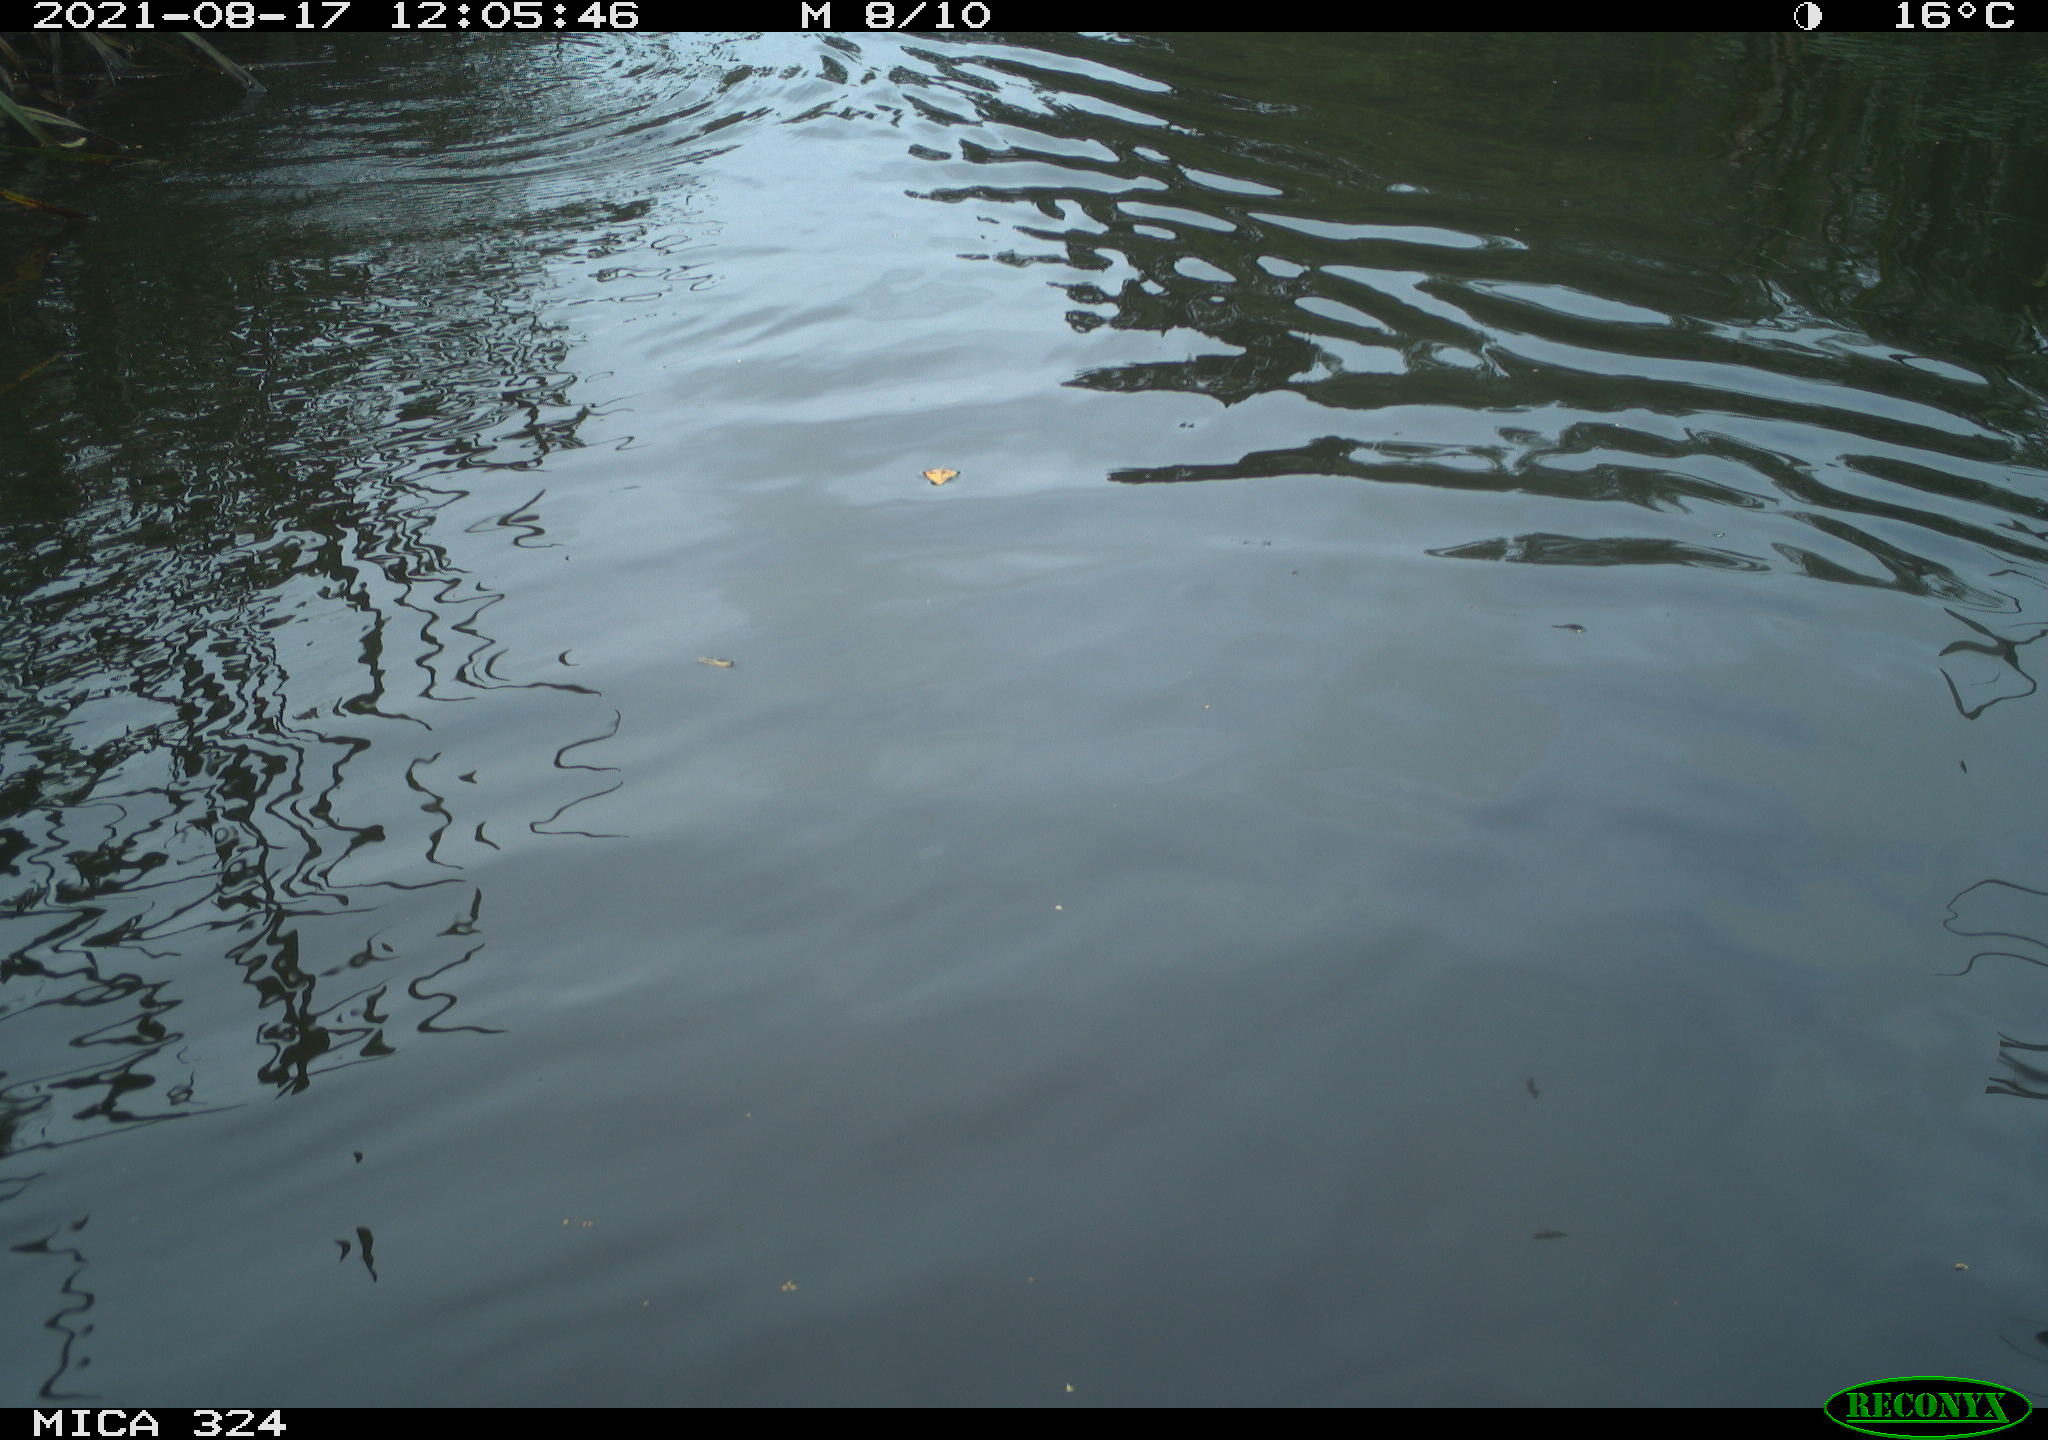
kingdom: Animalia
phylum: Chordata
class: Mammalia
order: Rodentia
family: Cricetidae
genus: Ondatra
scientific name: Ondatra zibethicus
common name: Muskrat
